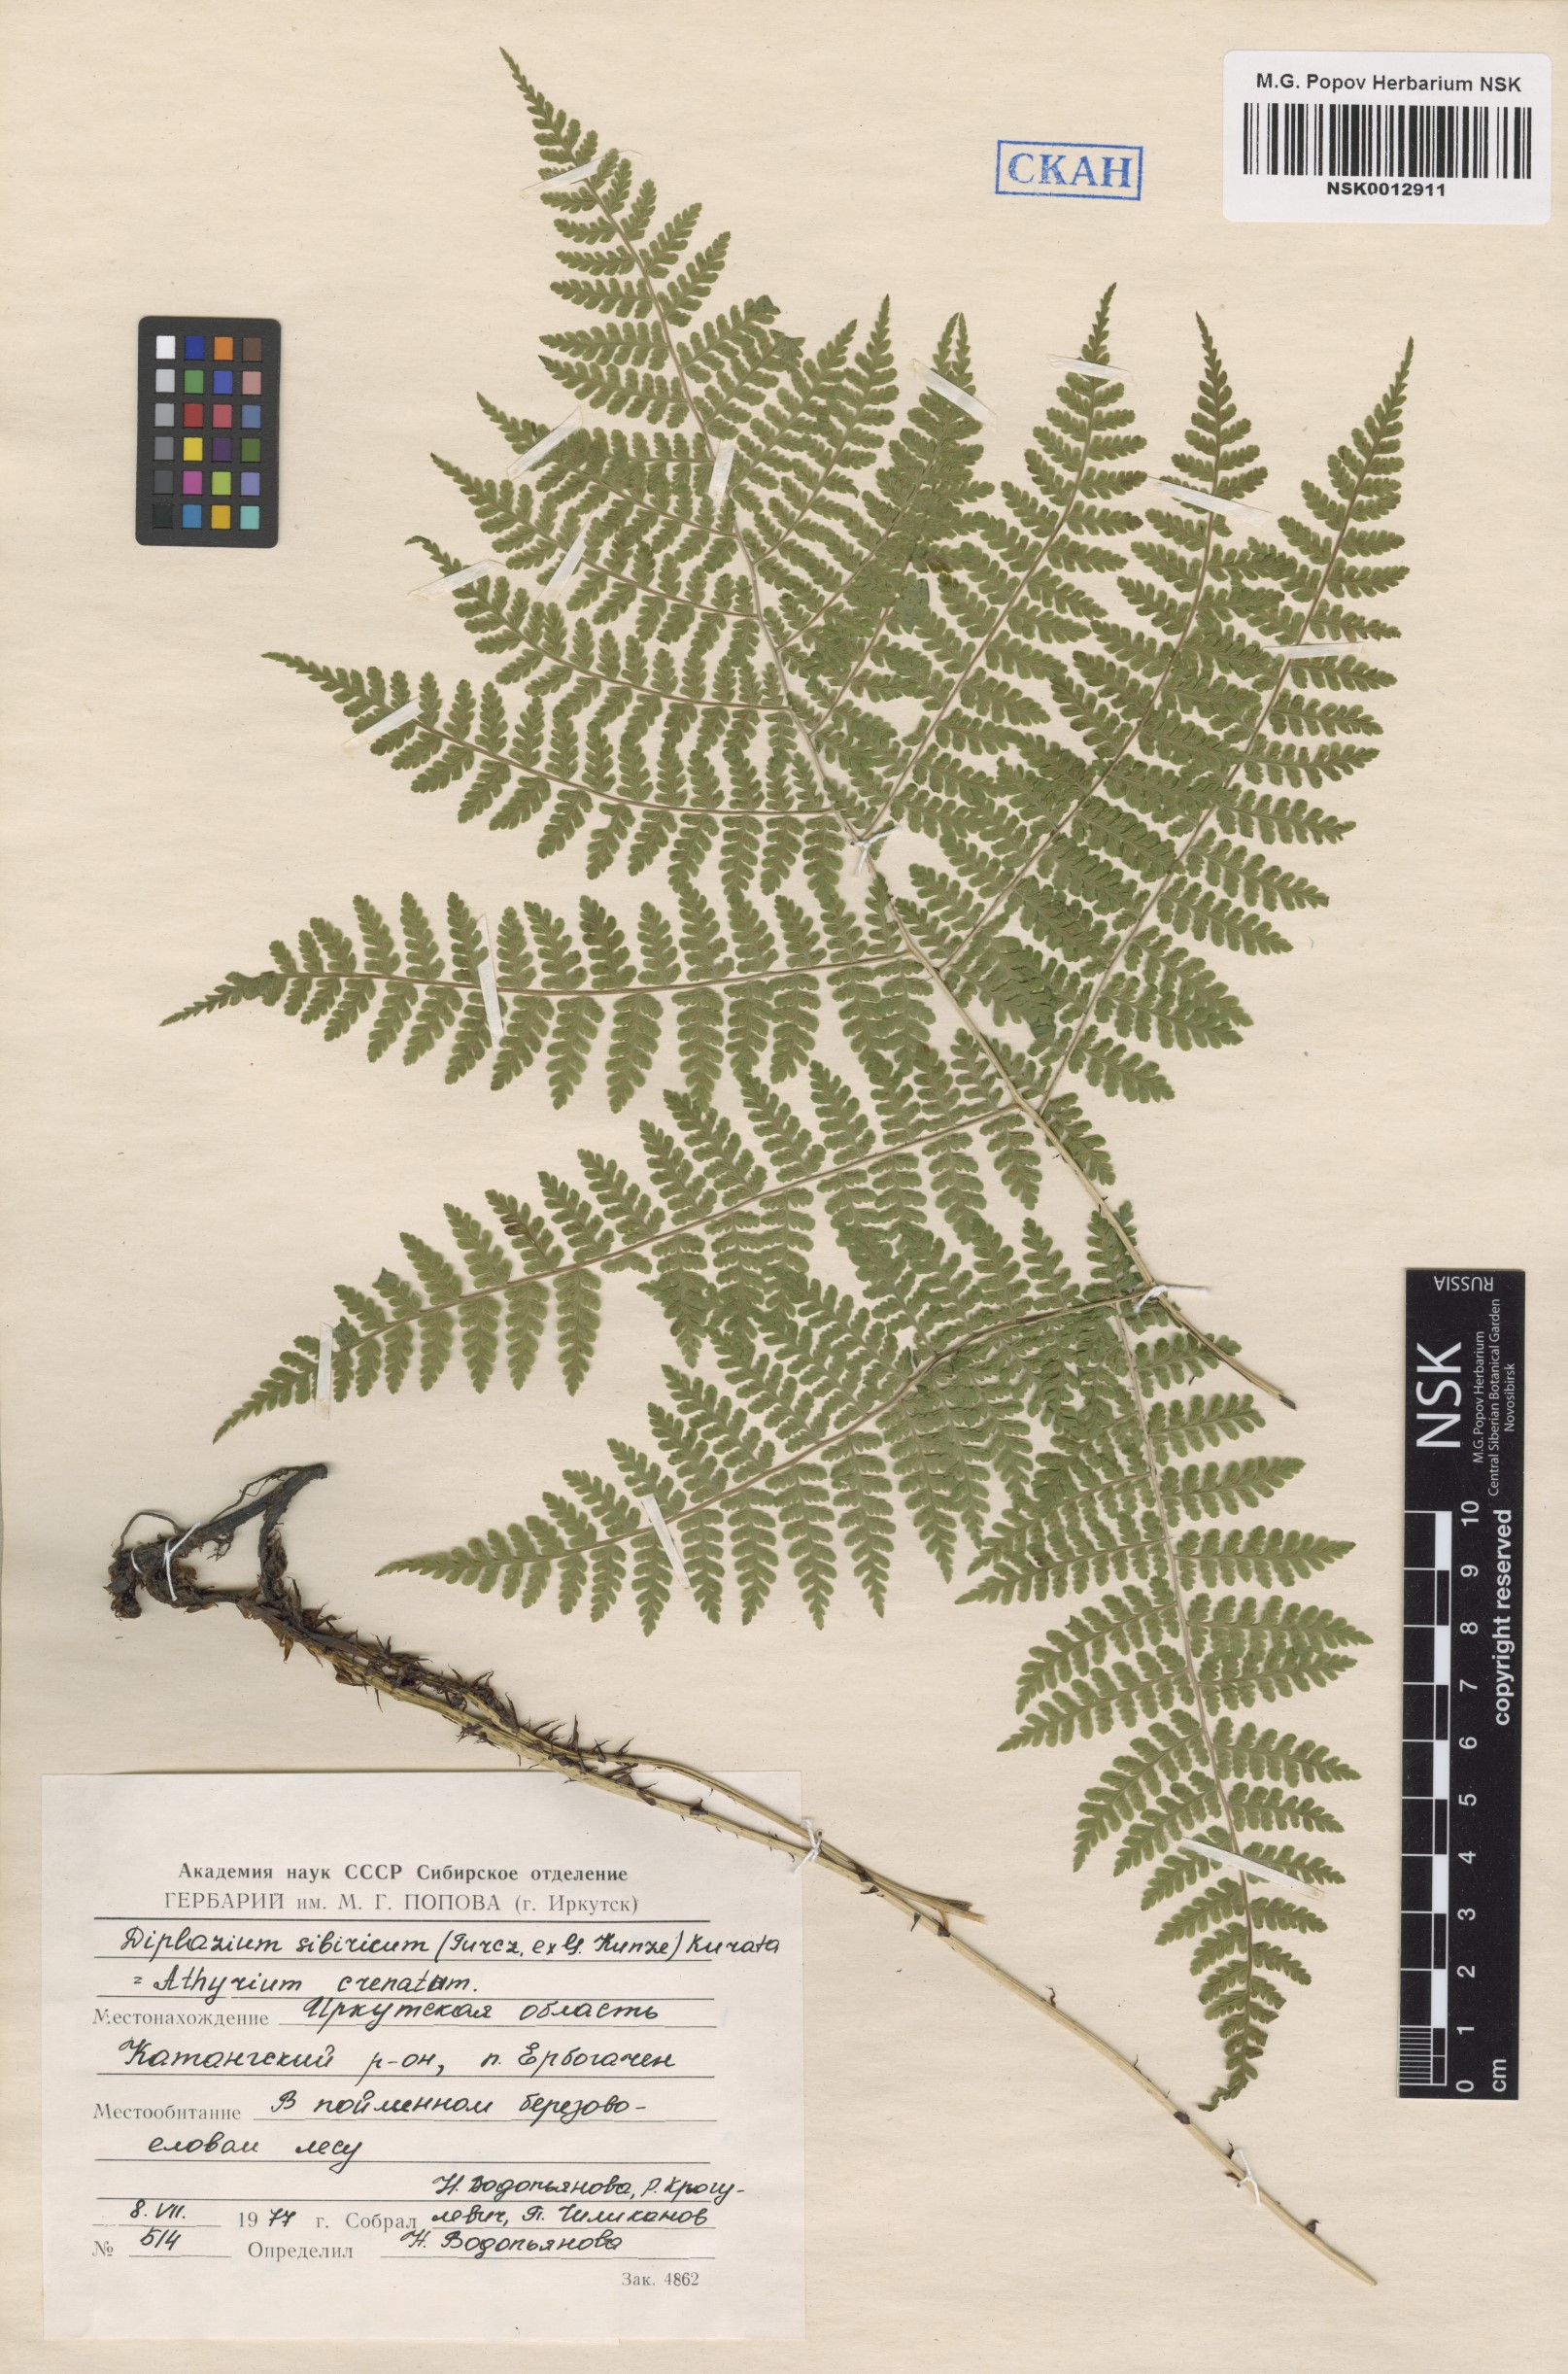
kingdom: Plantae
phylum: Tracheophyta
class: Polypodiopsida
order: Polypodiales
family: Athyriaceae
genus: Diplazium
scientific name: Diplazium sibiricum
